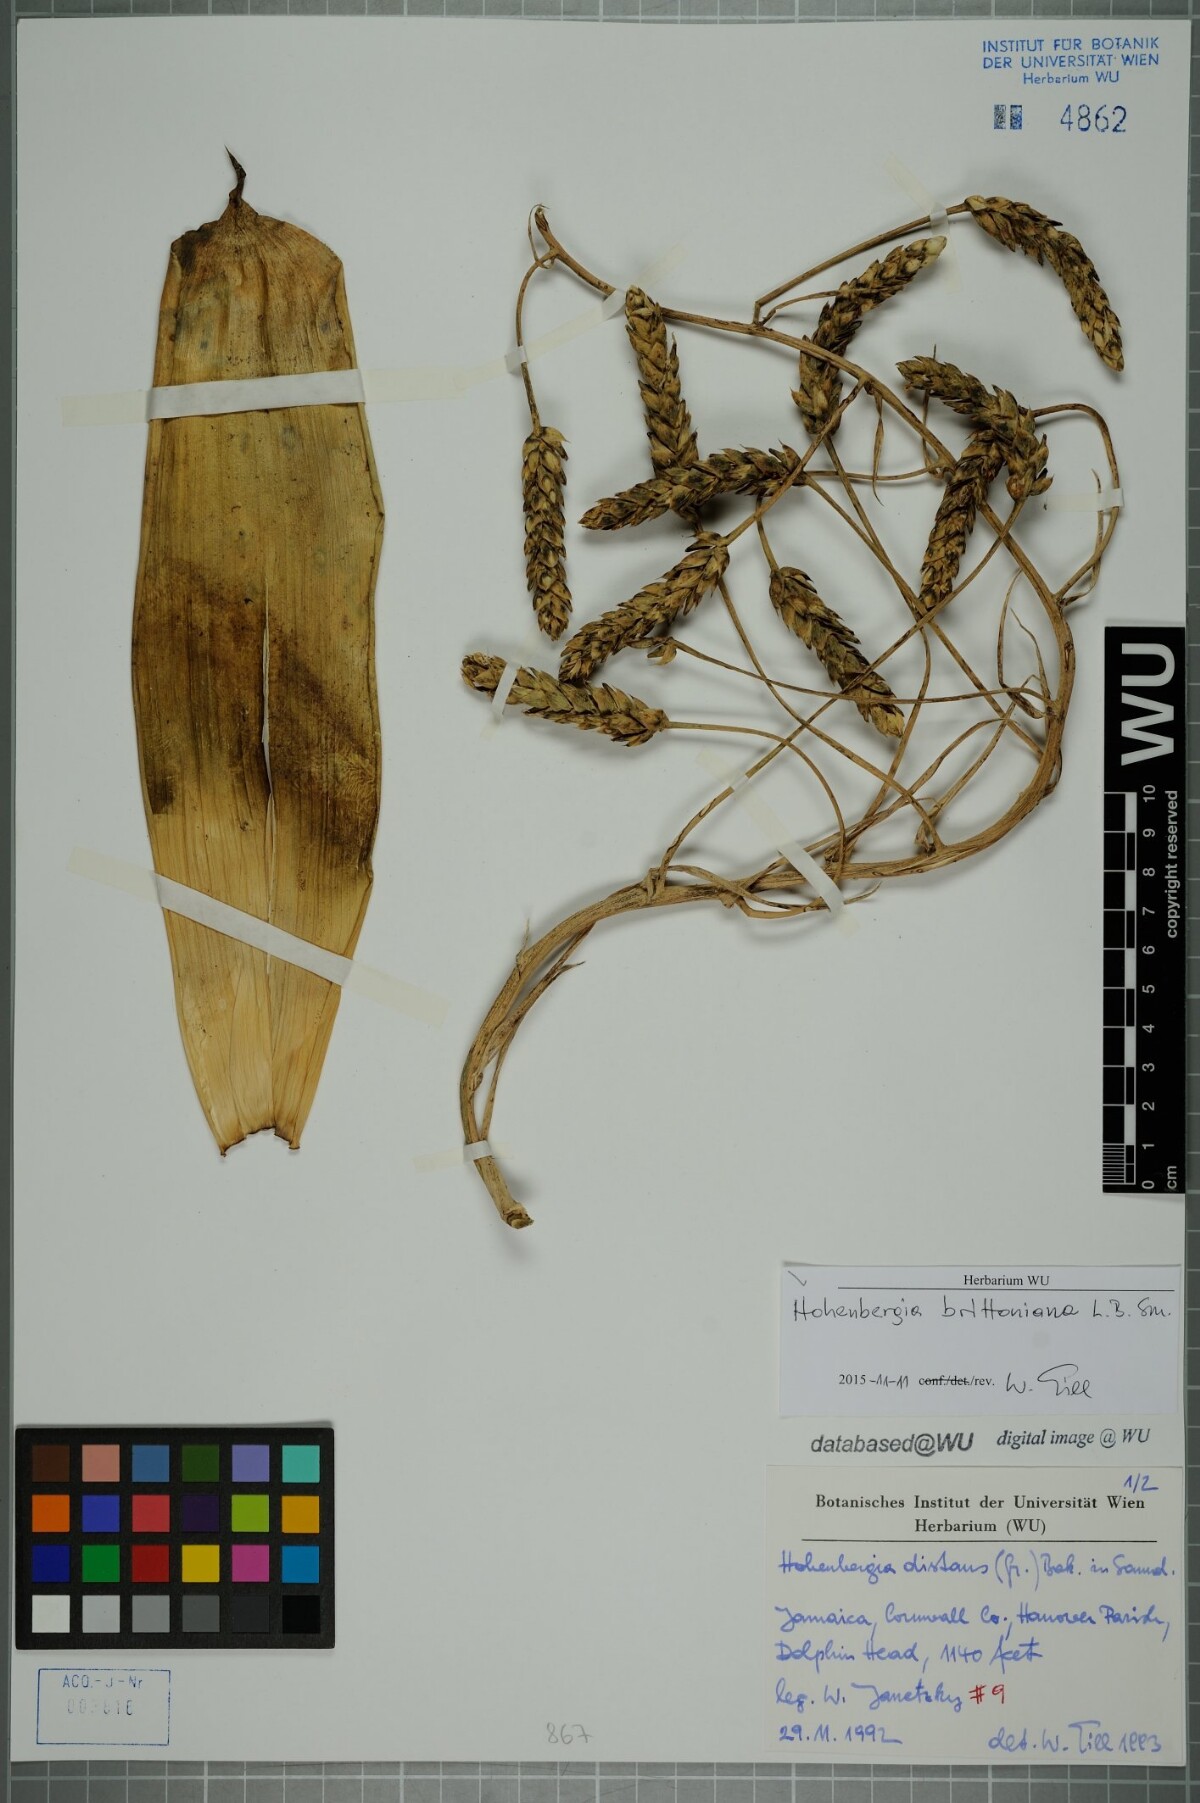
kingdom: Plantae
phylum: Tracheophyta
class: Liliopsida
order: Poales
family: Bromeliaceae
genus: Wittmackia
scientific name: Wittmackia distans
